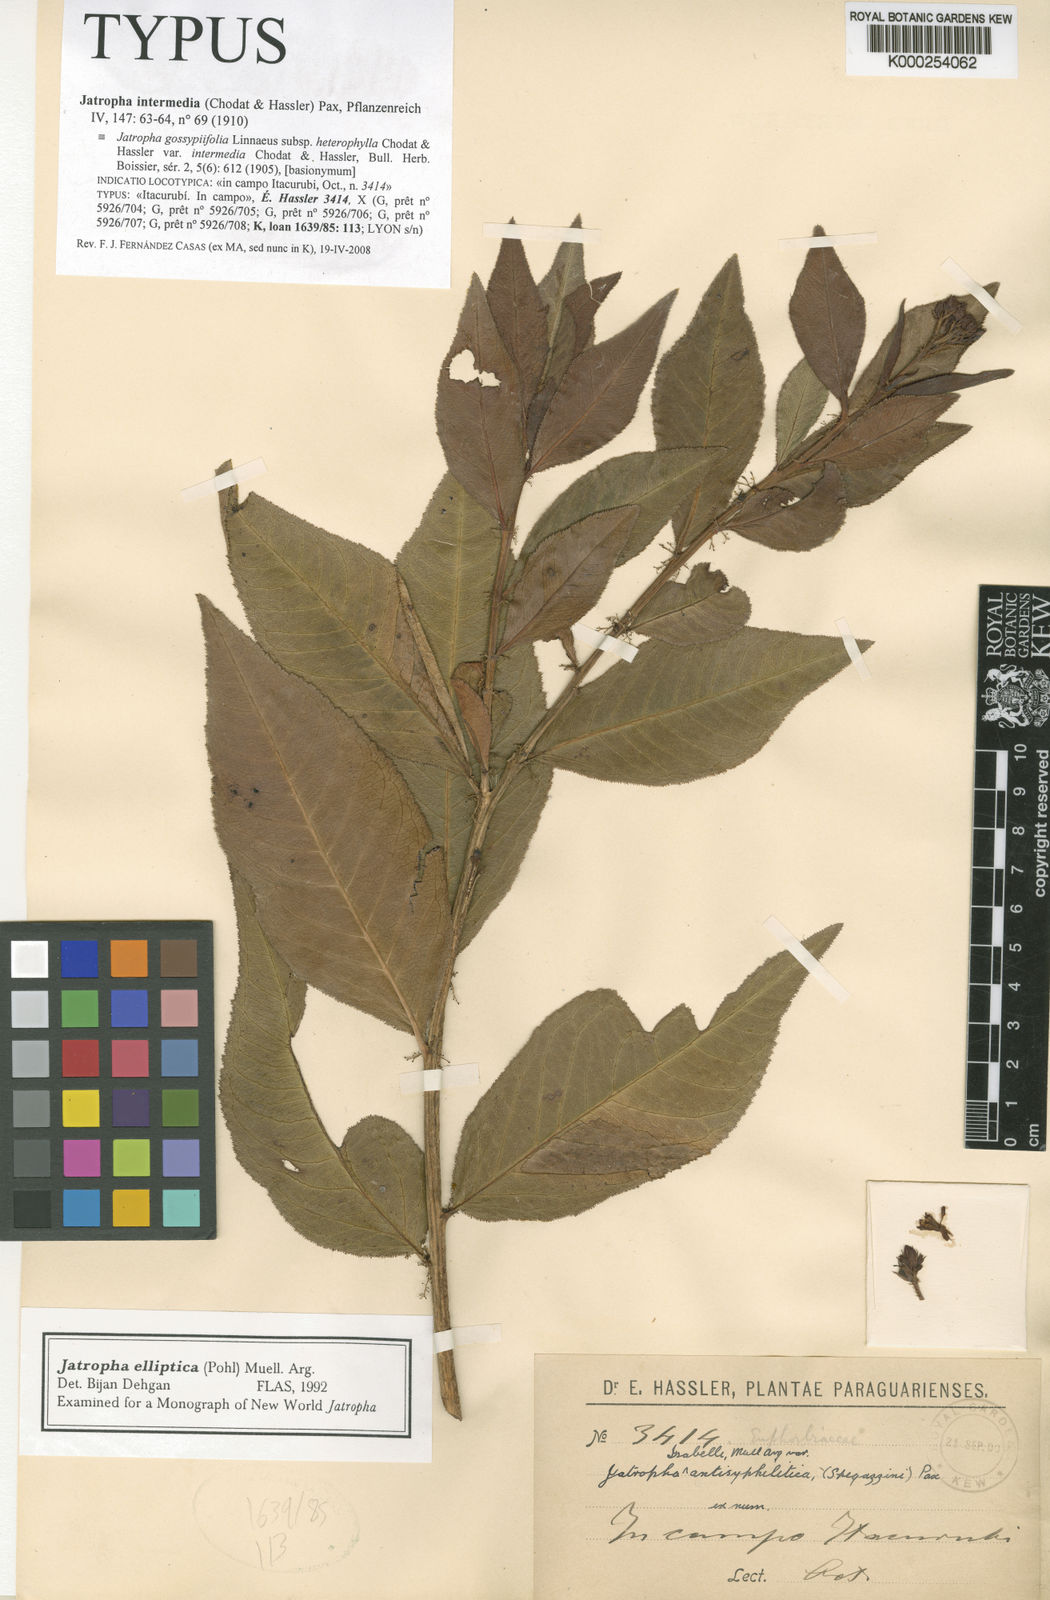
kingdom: Plantae
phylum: Tracheophyta
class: Magnoliopsida
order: Malpighiales
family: Euphorbiaceae
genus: Jatropha
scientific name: Jatropha intermedia
